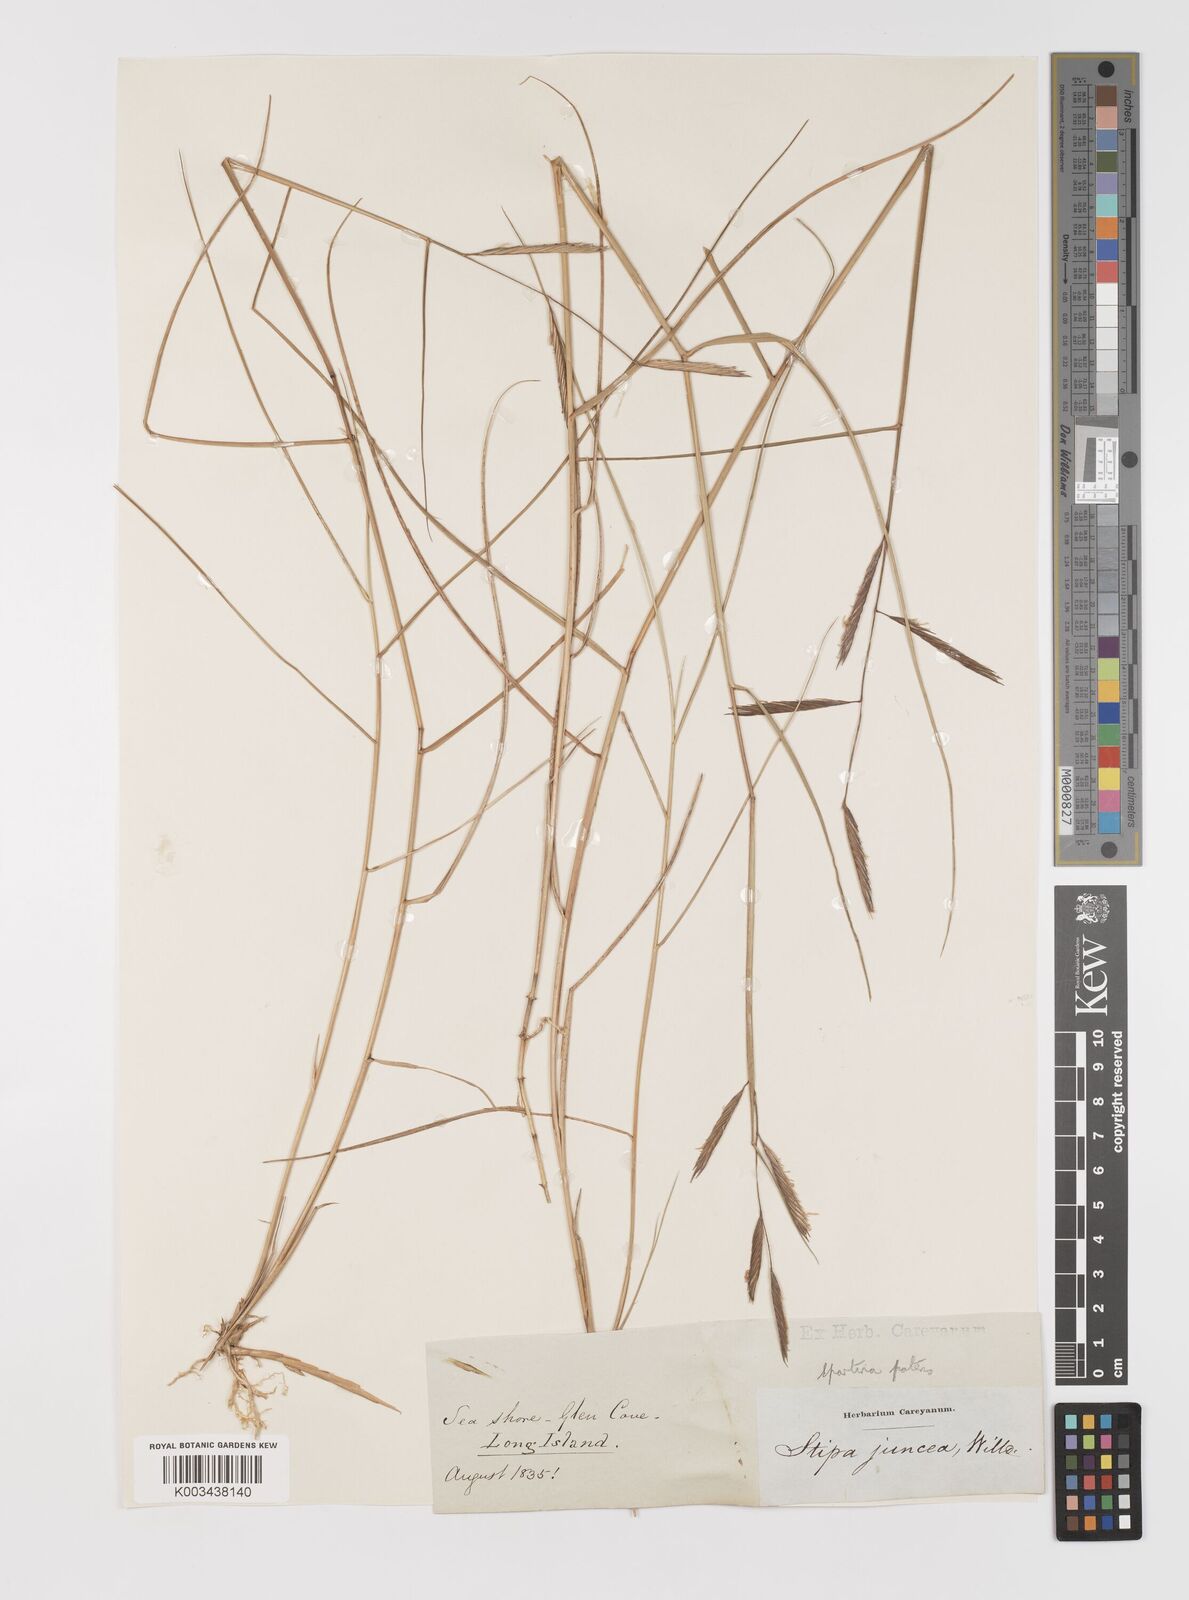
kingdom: Plantae
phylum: Tracheophyta
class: Liliopsida
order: Poales
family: Poaceae
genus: Sporobolus
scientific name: Sporobolus pumilus
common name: Highwater grass
